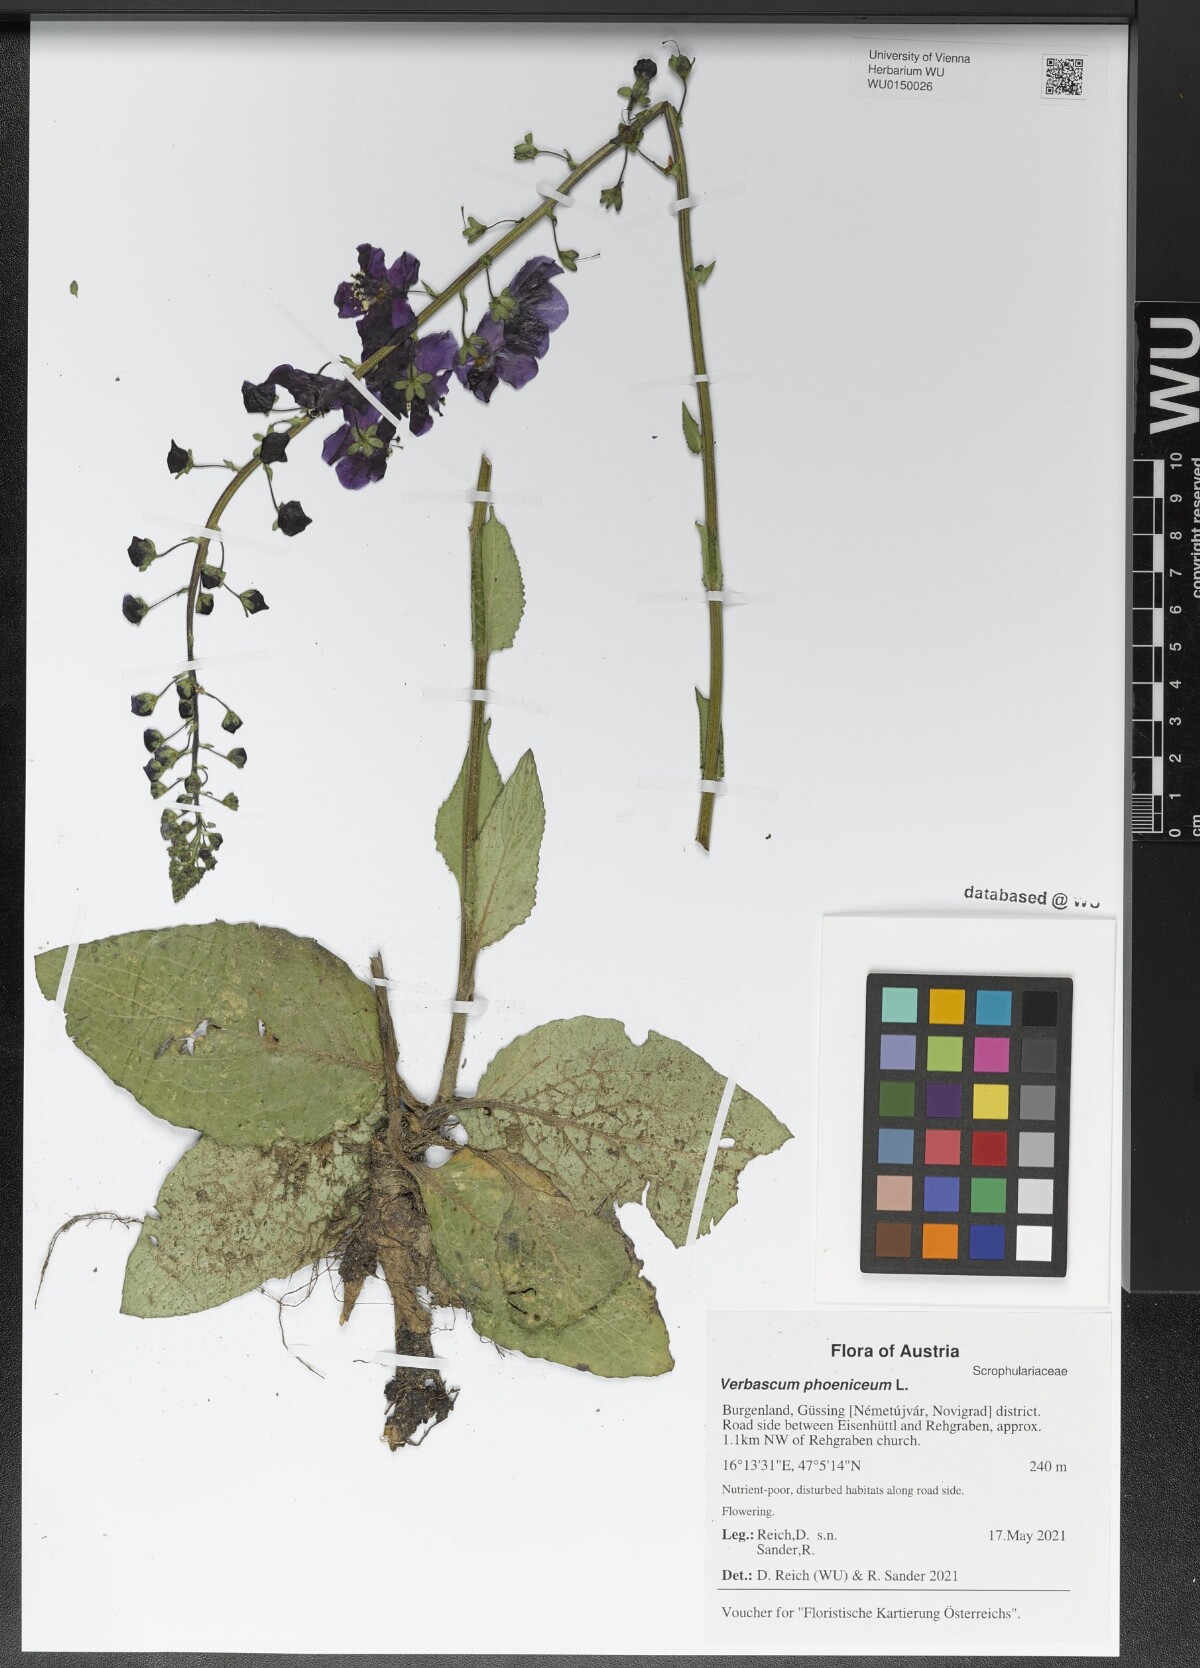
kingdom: Plantae
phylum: Tracheophyta
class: Magnoliopsida
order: Lamiales
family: Scrophulariaceae
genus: Verbascum
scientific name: Verbascum phoeniceum
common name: Purple mullein
